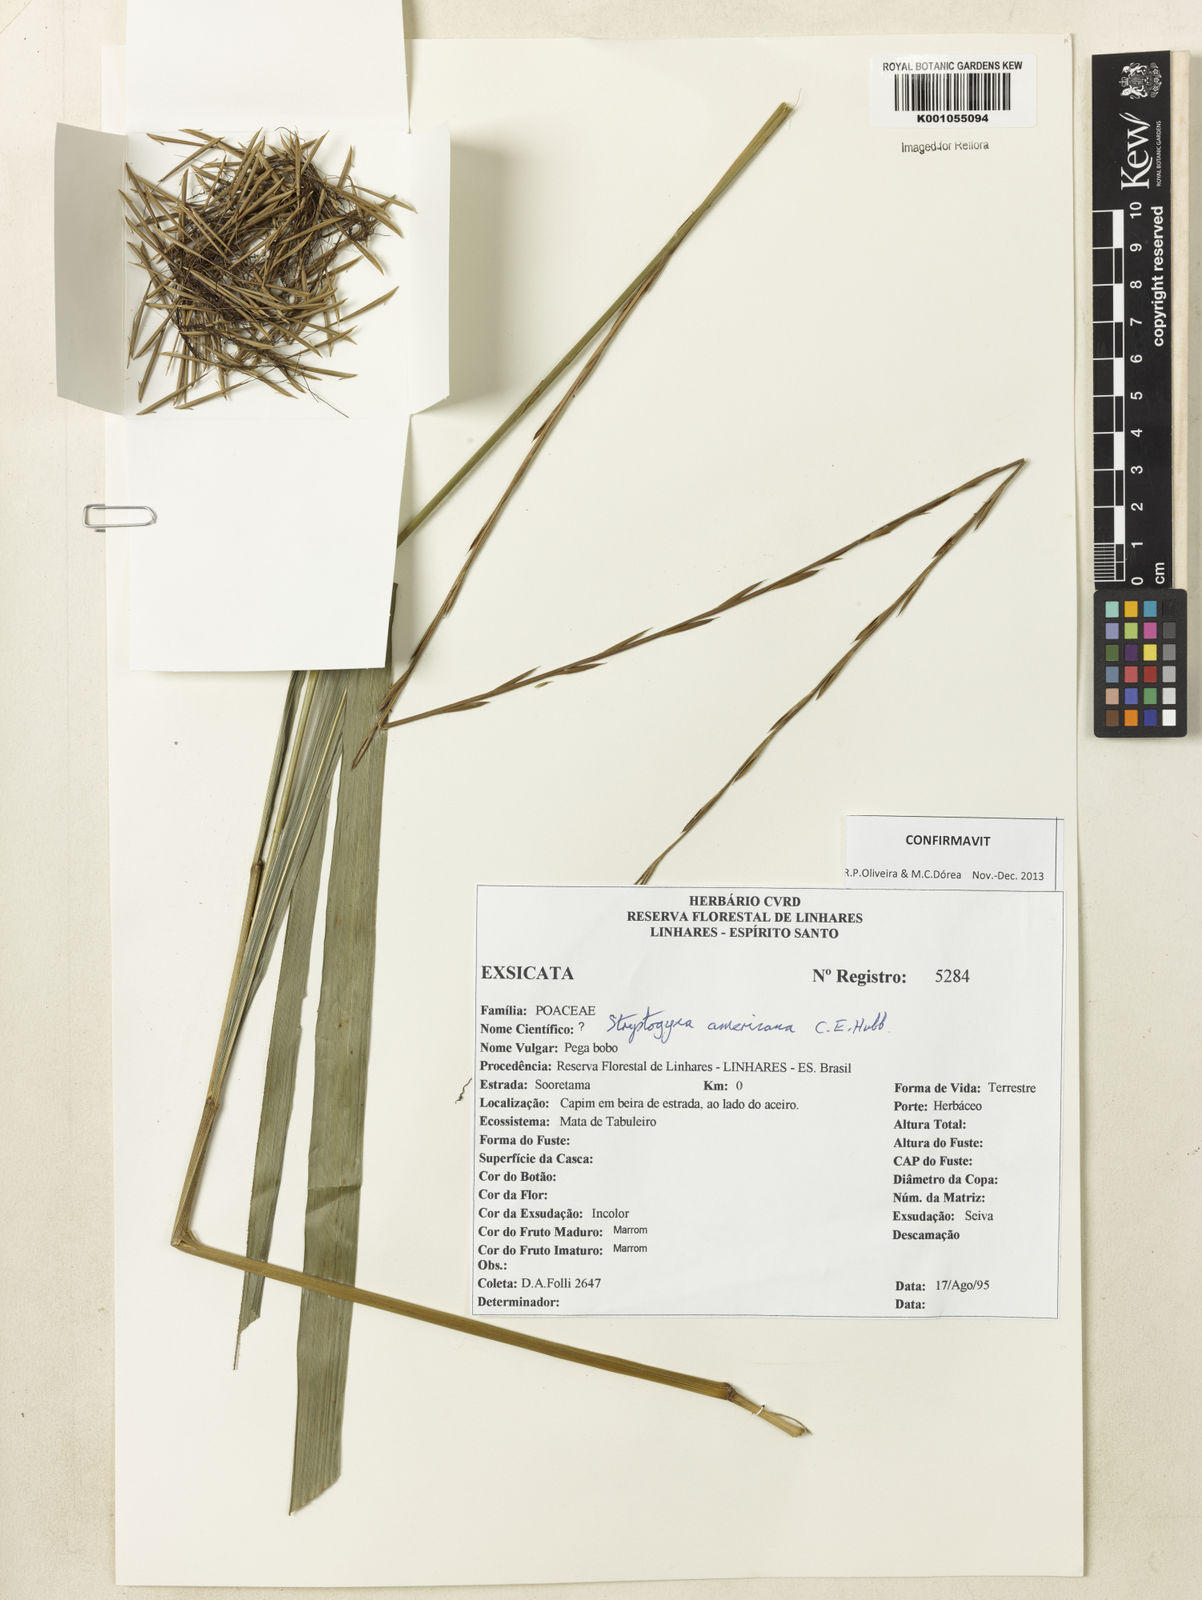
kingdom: Plantae
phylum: Tracheophyta
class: Liliopsida
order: Poales
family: Poaceae
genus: Streptogyna
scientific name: Streptogyna americana
